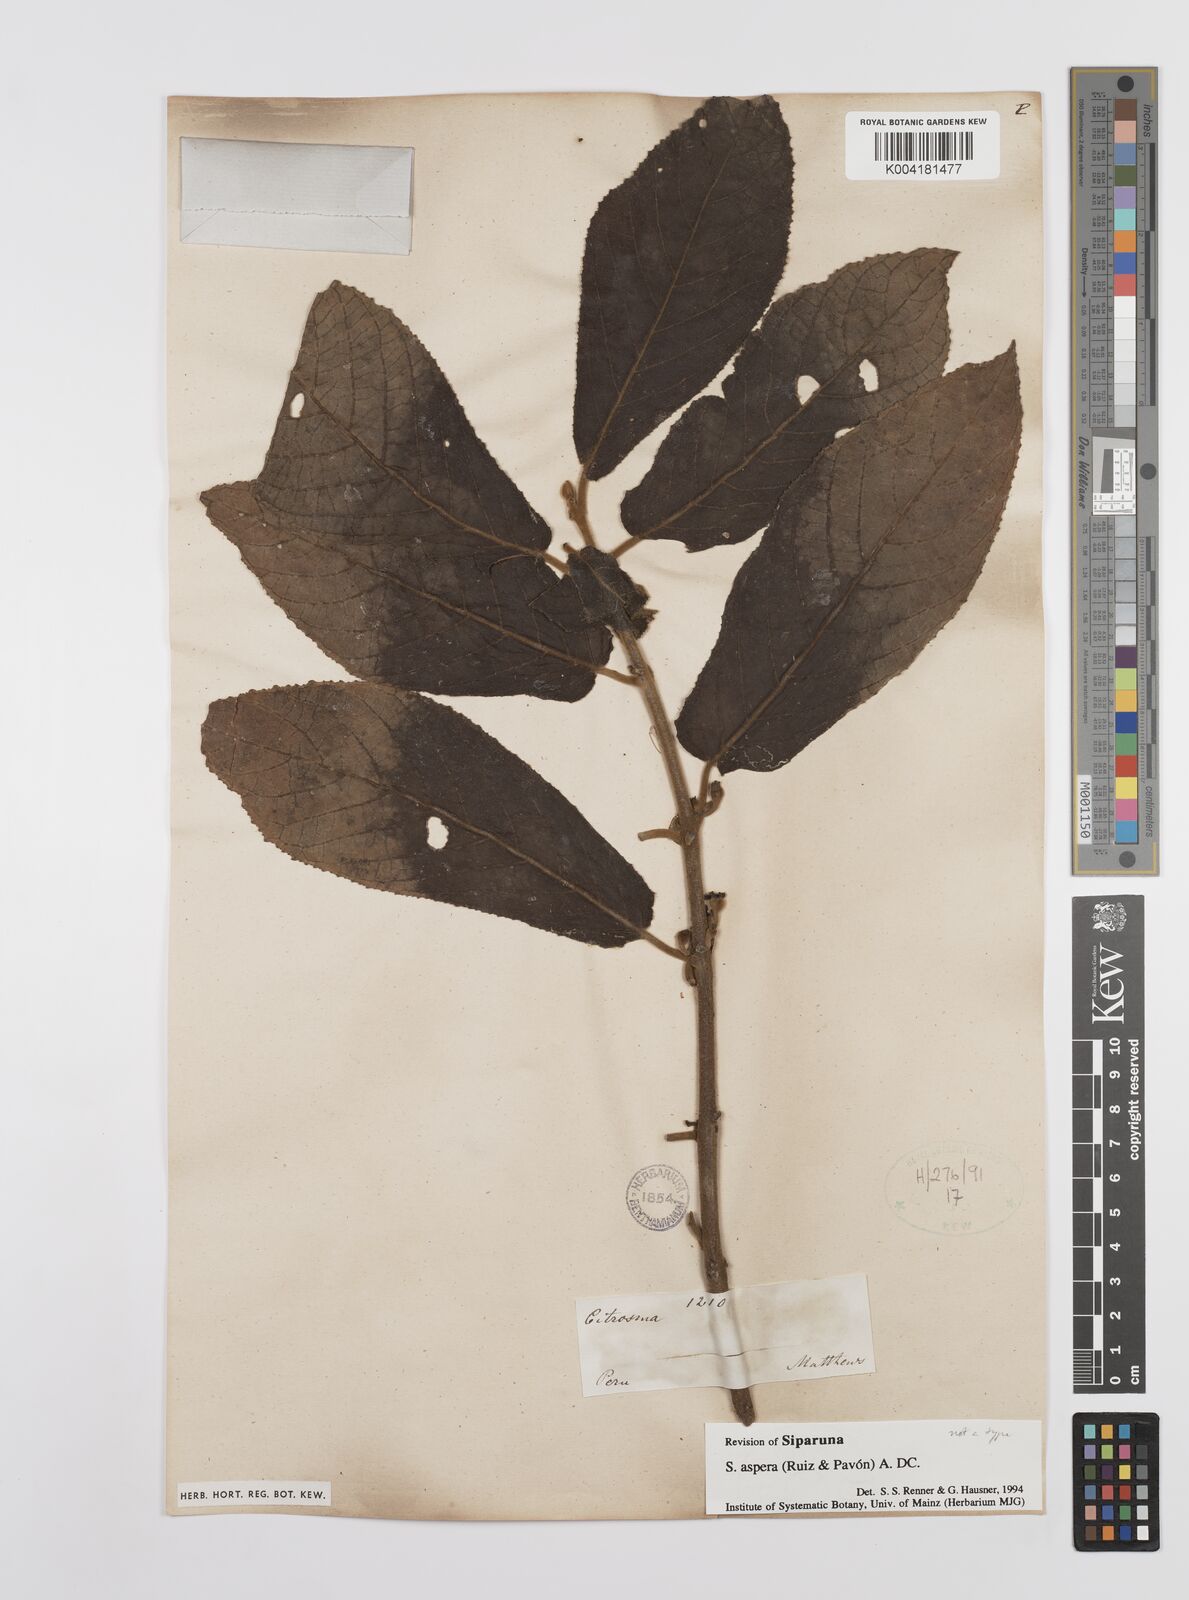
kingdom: Plantae
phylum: Tracheophyta
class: Magnoliopsida
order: Laurales
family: Siparunaceae
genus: Siparuna
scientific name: Siparuna aspera
